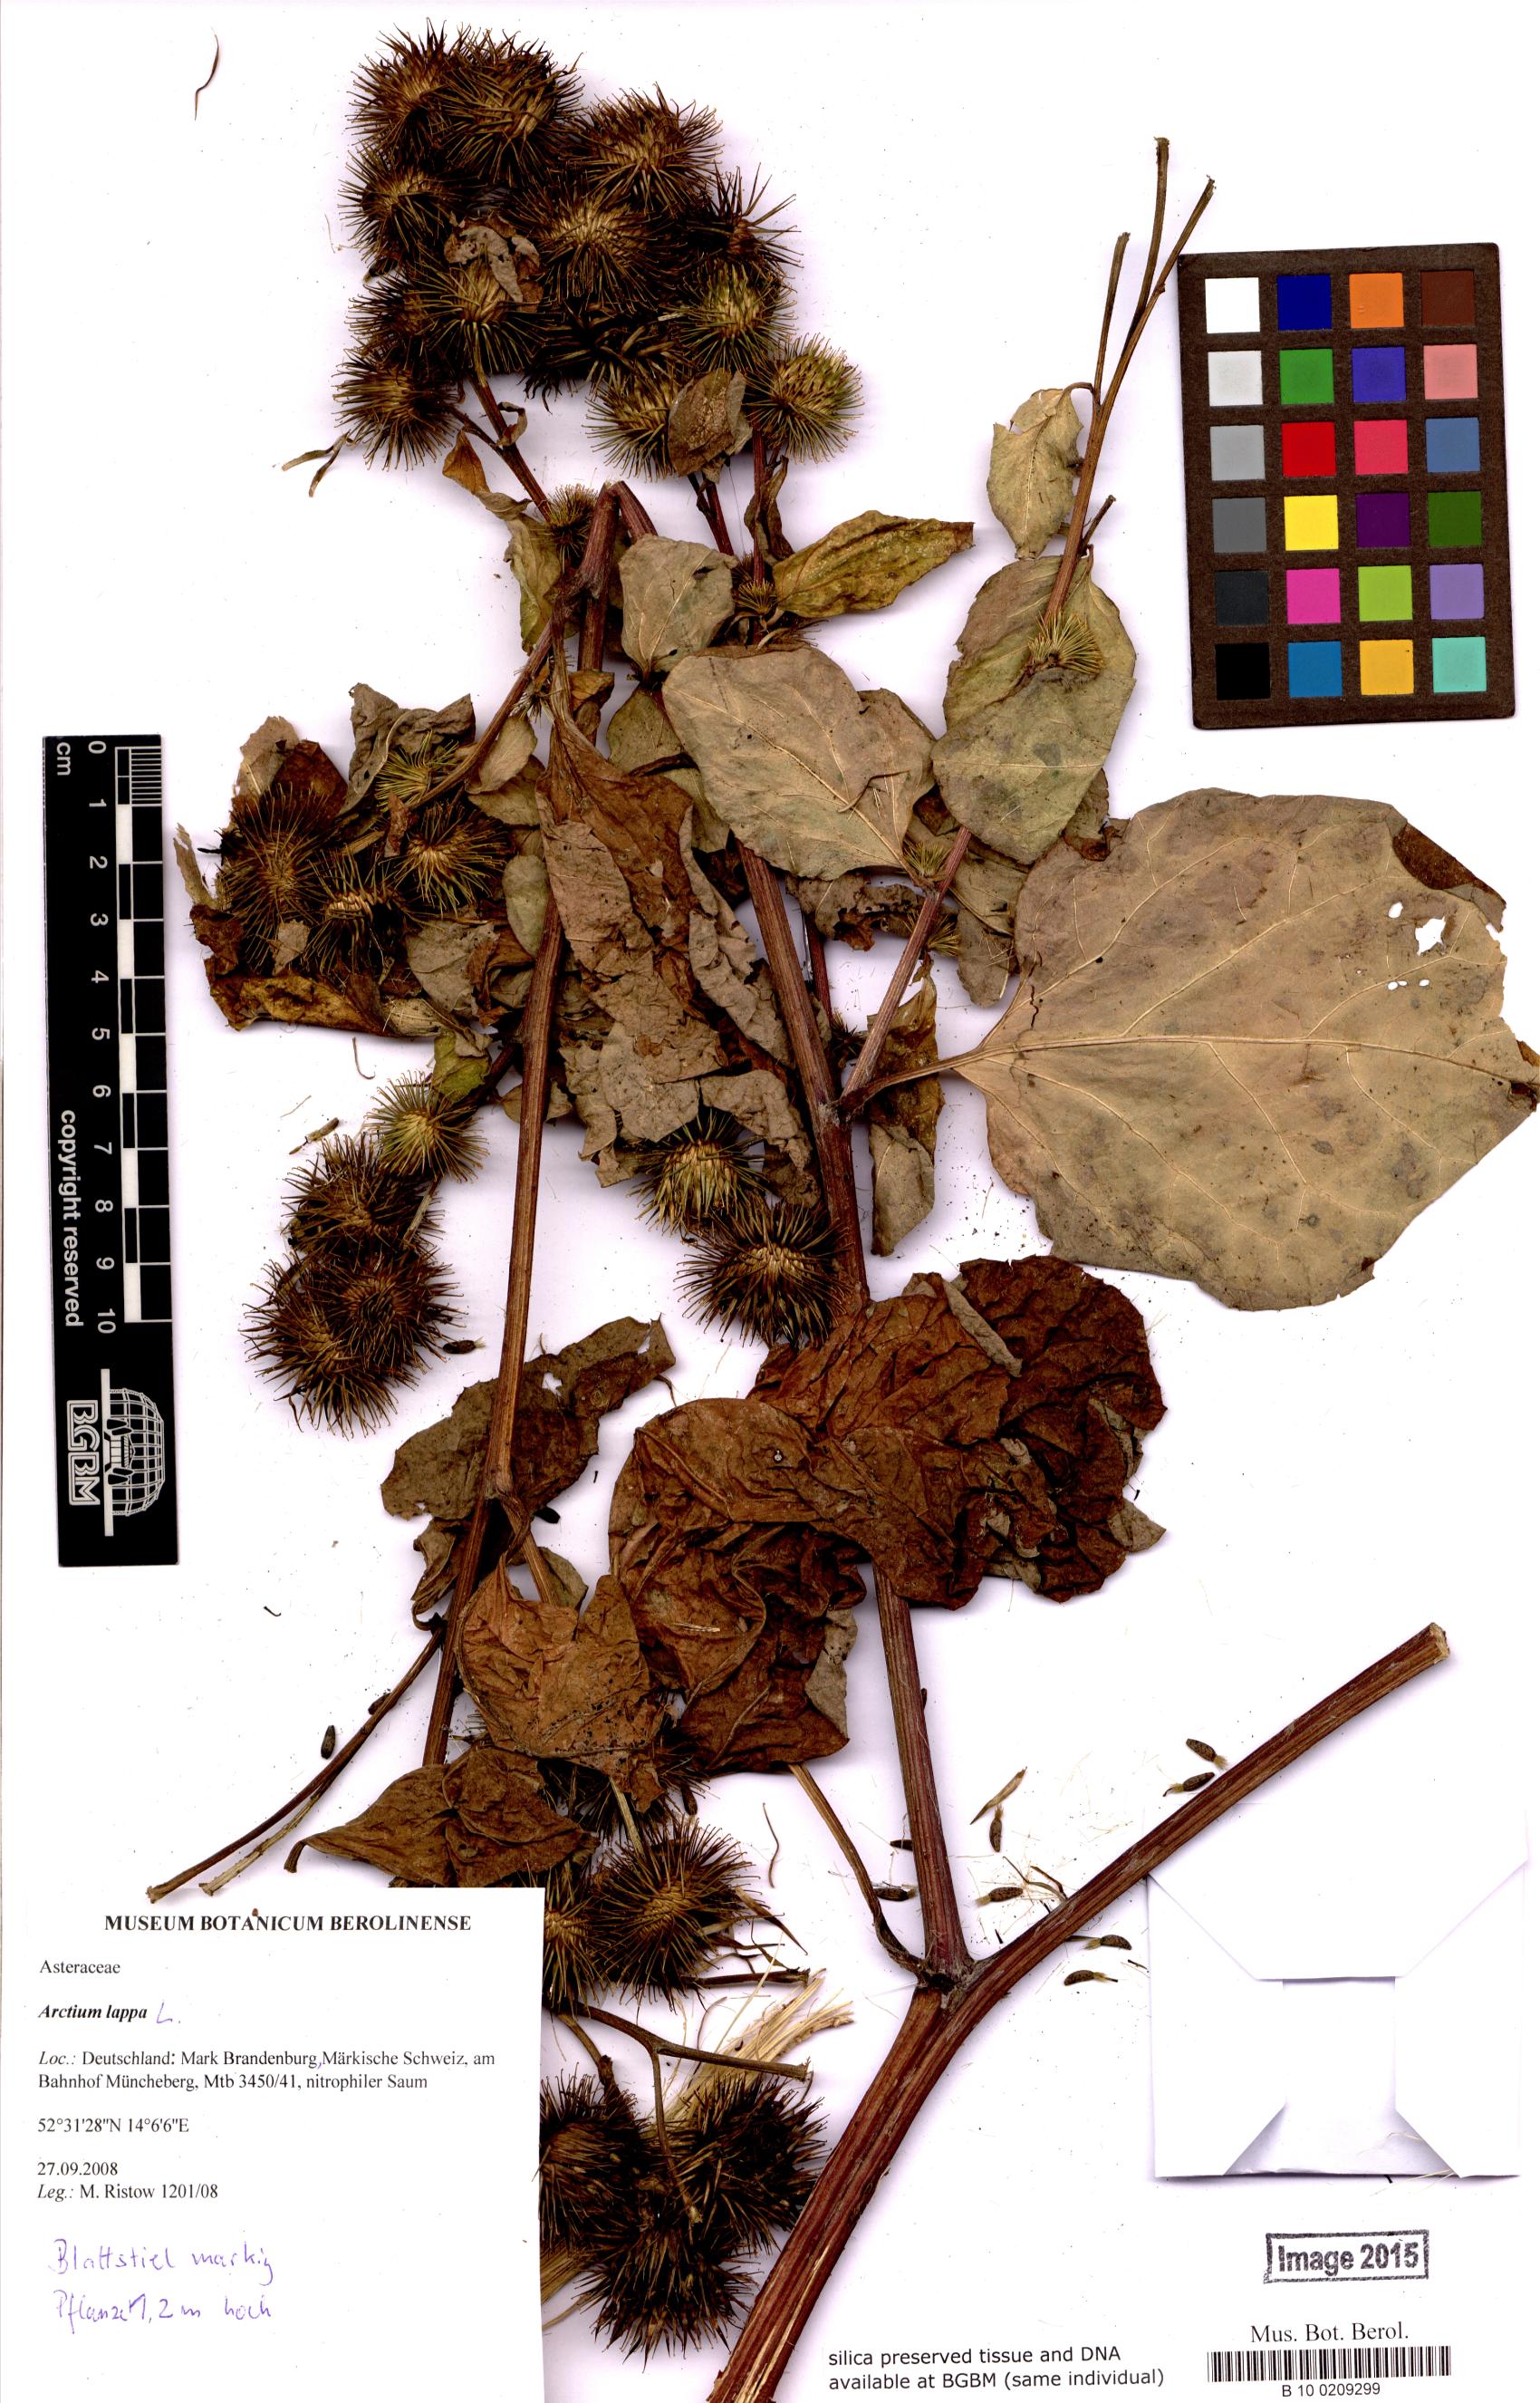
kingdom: Plantae
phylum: Tracheophyta
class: Magnoliopsida
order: Asterales
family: Asteraceae
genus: Arctium
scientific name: Arctium lappa
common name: Greater burdock
